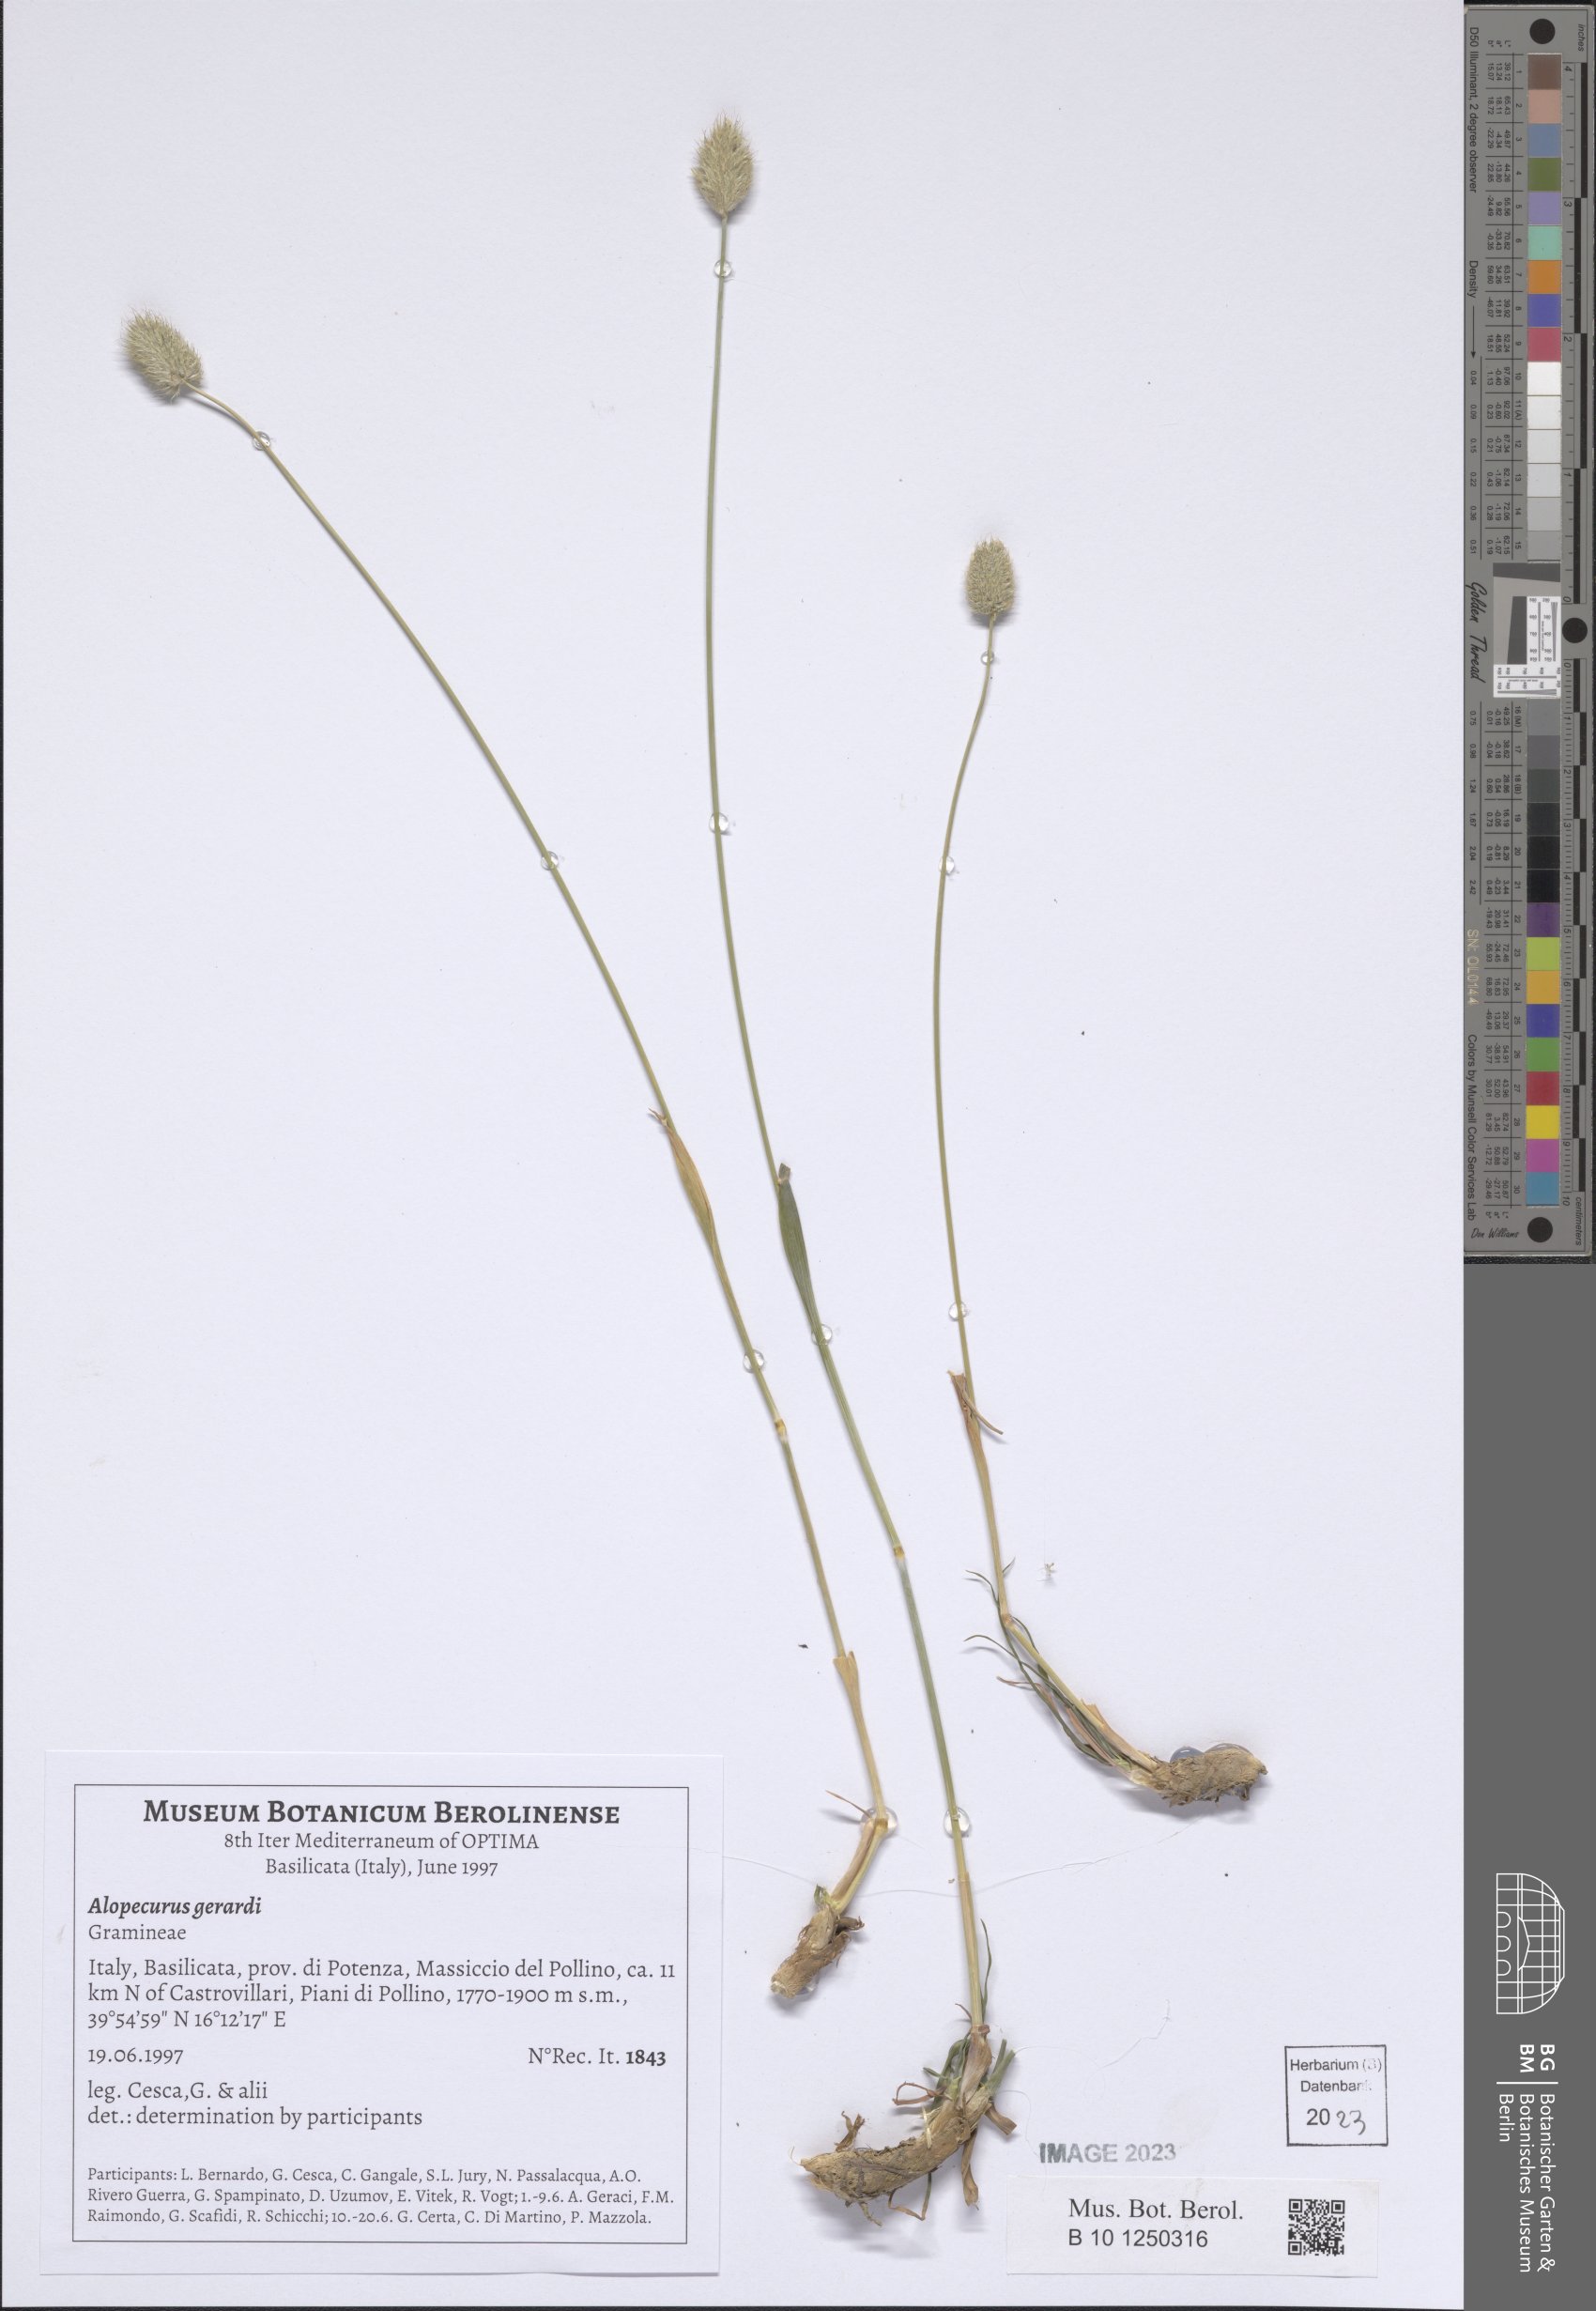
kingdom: Plantae
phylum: Tracheophyta
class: Liliopsida
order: Poales
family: Poaceae
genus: Alopecurus
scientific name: Alopecurus gerardii
